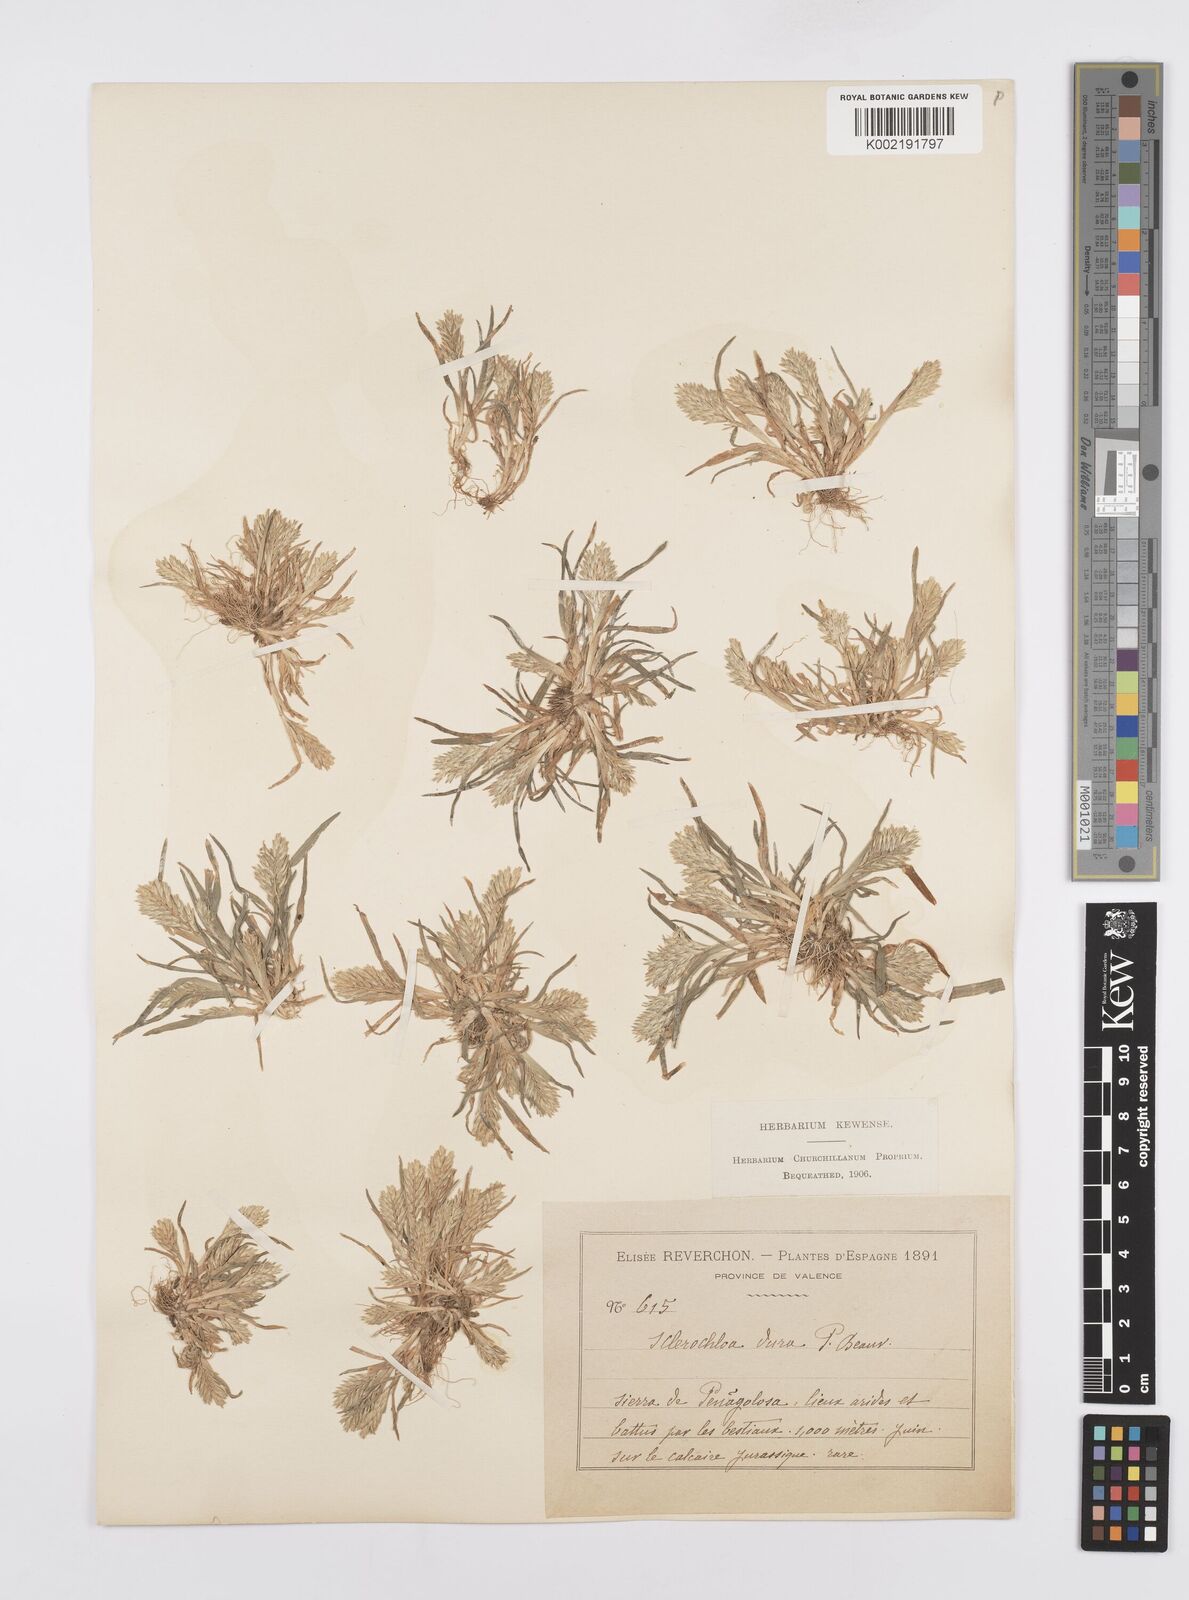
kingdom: Plantae
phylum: Tracheophyta
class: Liliopsida
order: Poales
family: Poaceae
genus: Sclerochloa
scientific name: Sclerochloa dura
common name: Common hardgrass
